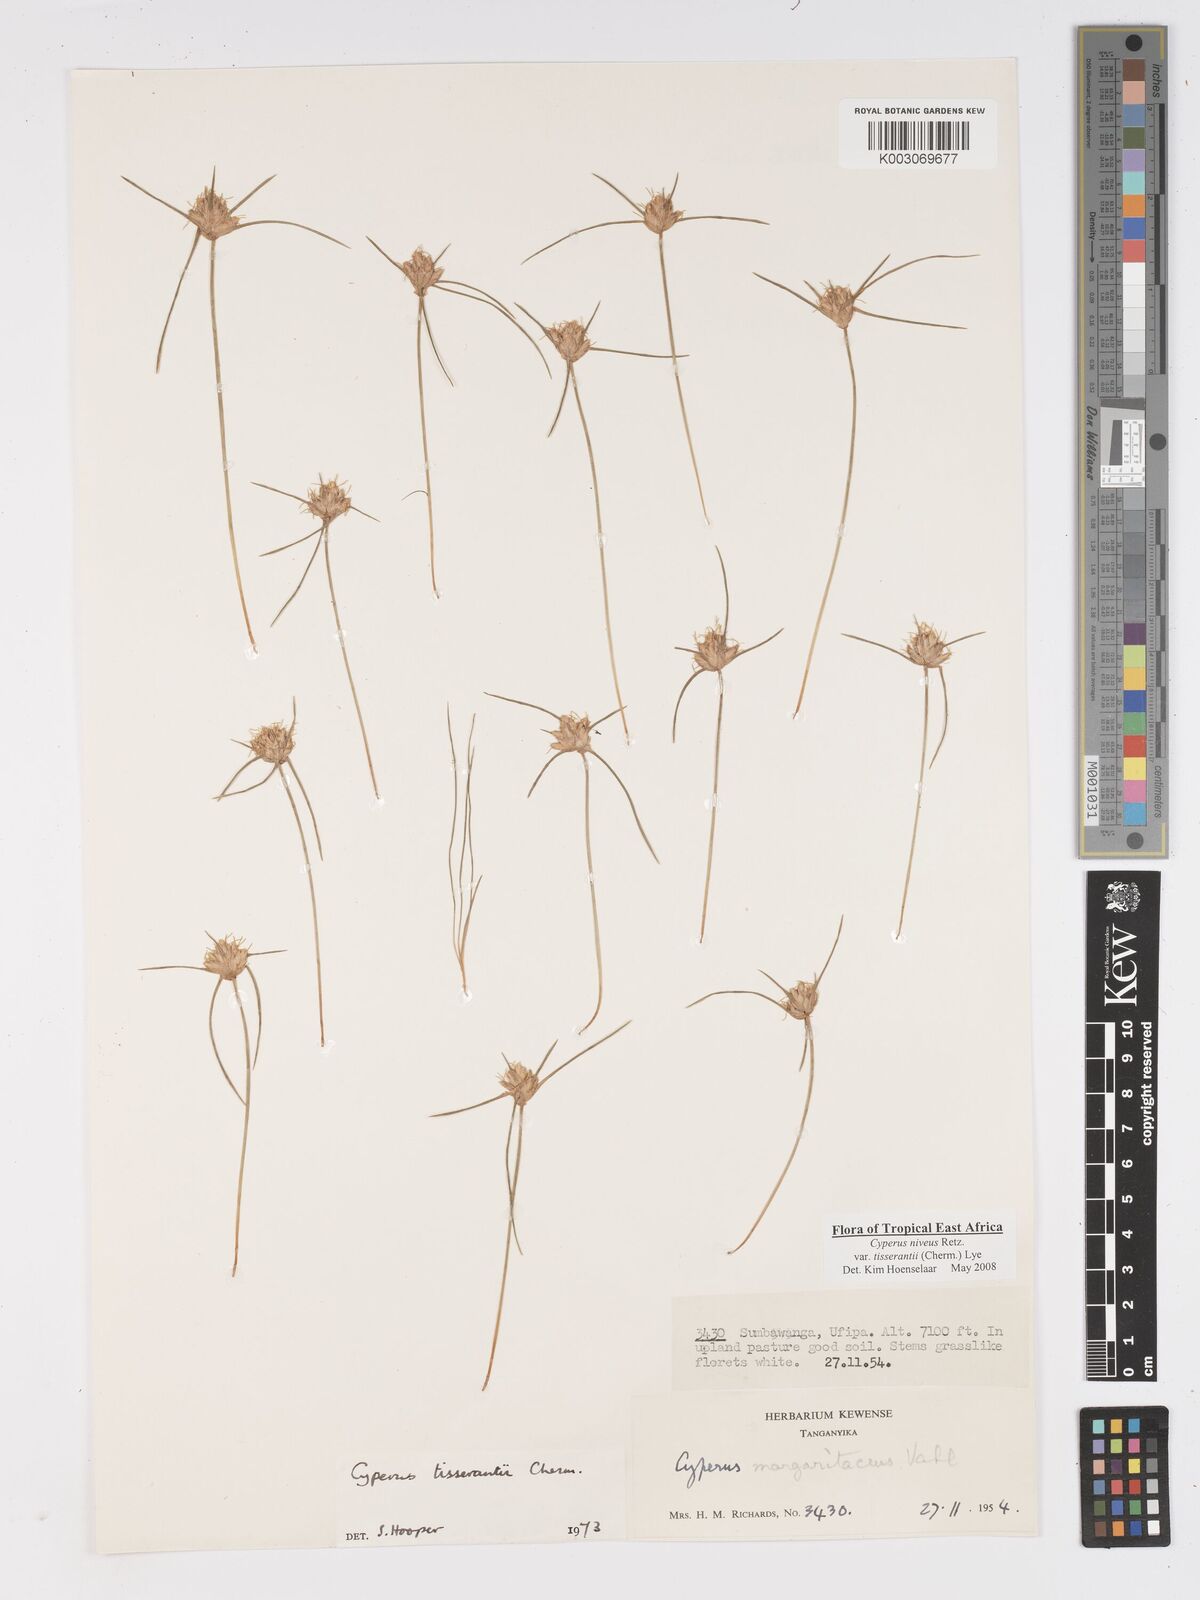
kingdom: Plantae
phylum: Tracheophyta
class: Liliopsida
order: Poales
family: Cyperaceae
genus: Cyperus
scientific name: Cyperus niveus
